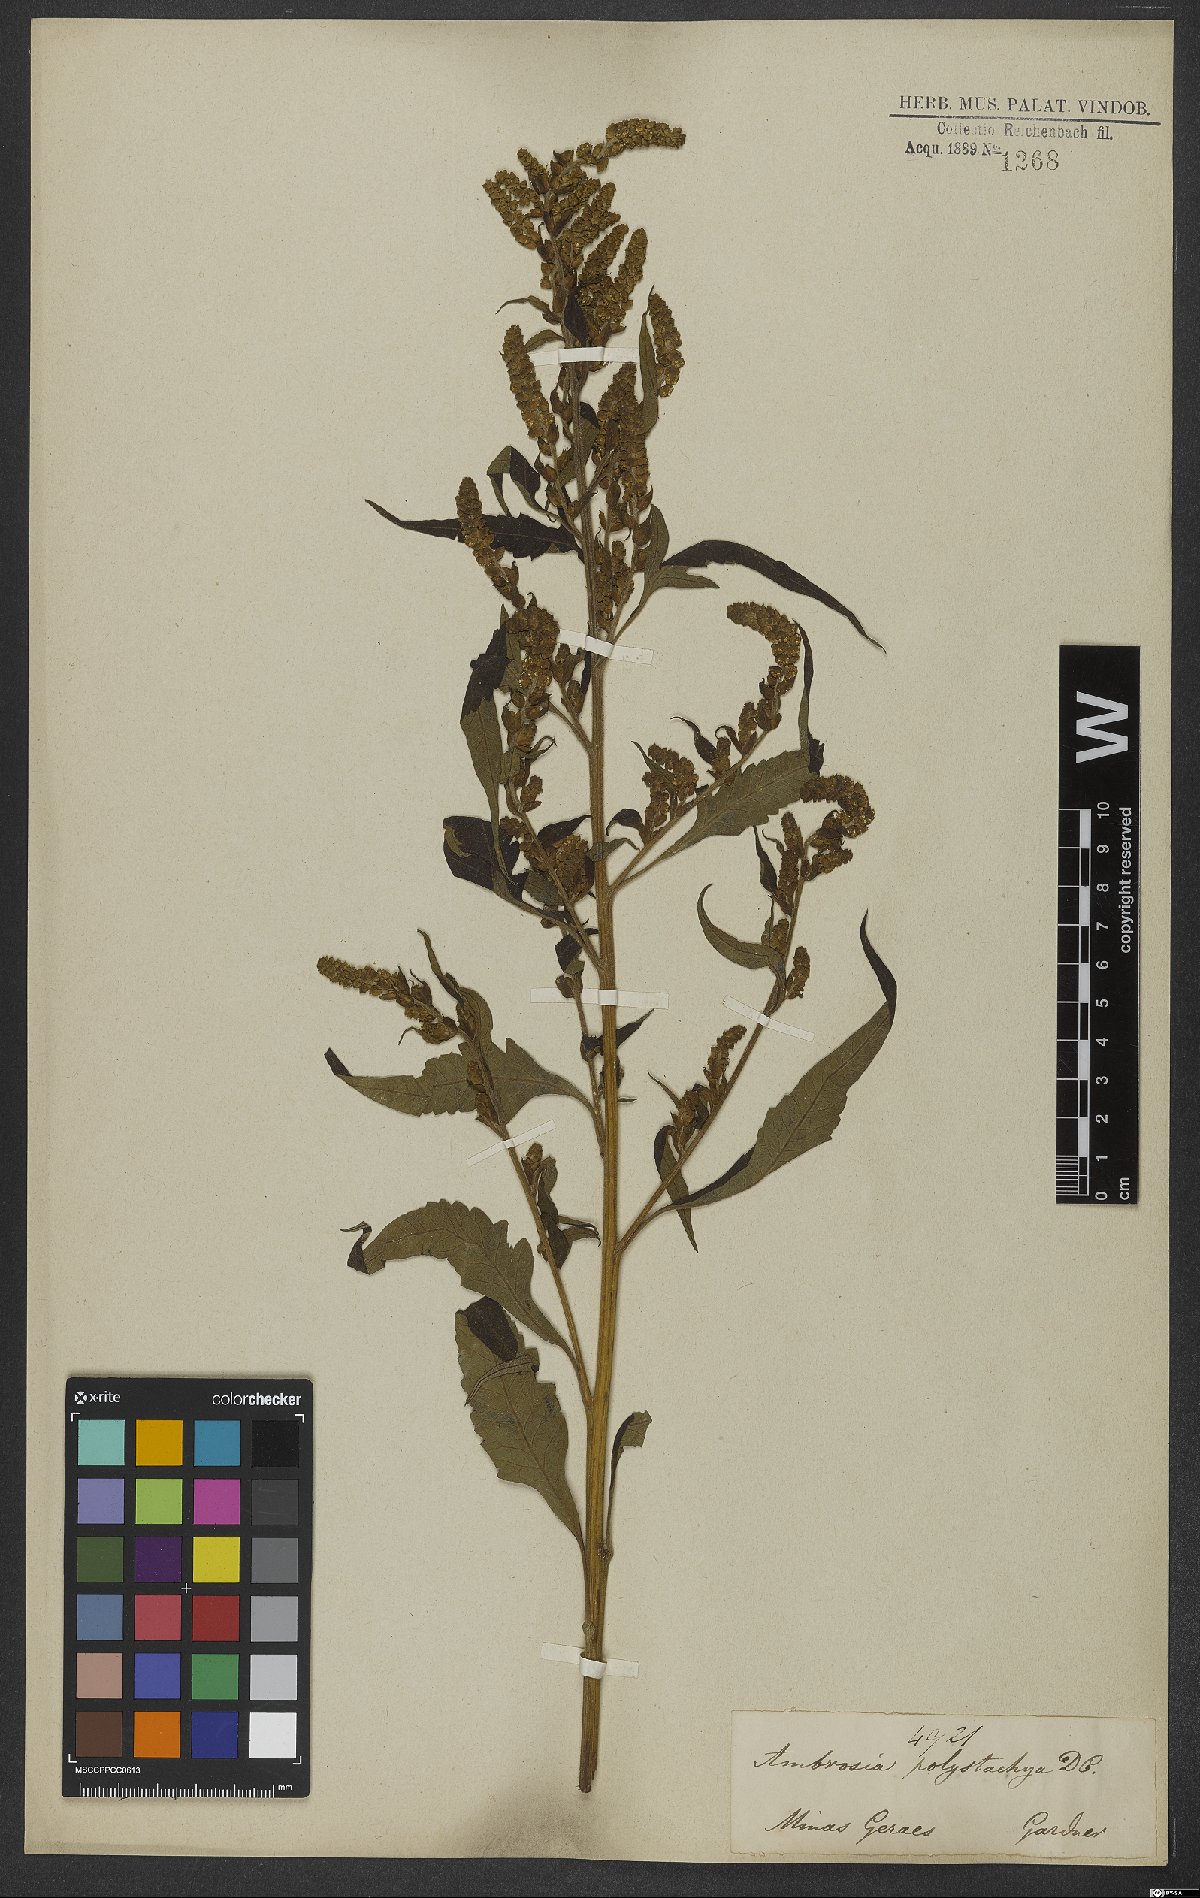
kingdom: Plantae
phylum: Tracheophyta
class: Magnoliopsida
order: Asterales
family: Asteraceae
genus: Ambrosia
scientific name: Ambrosia polystachya
